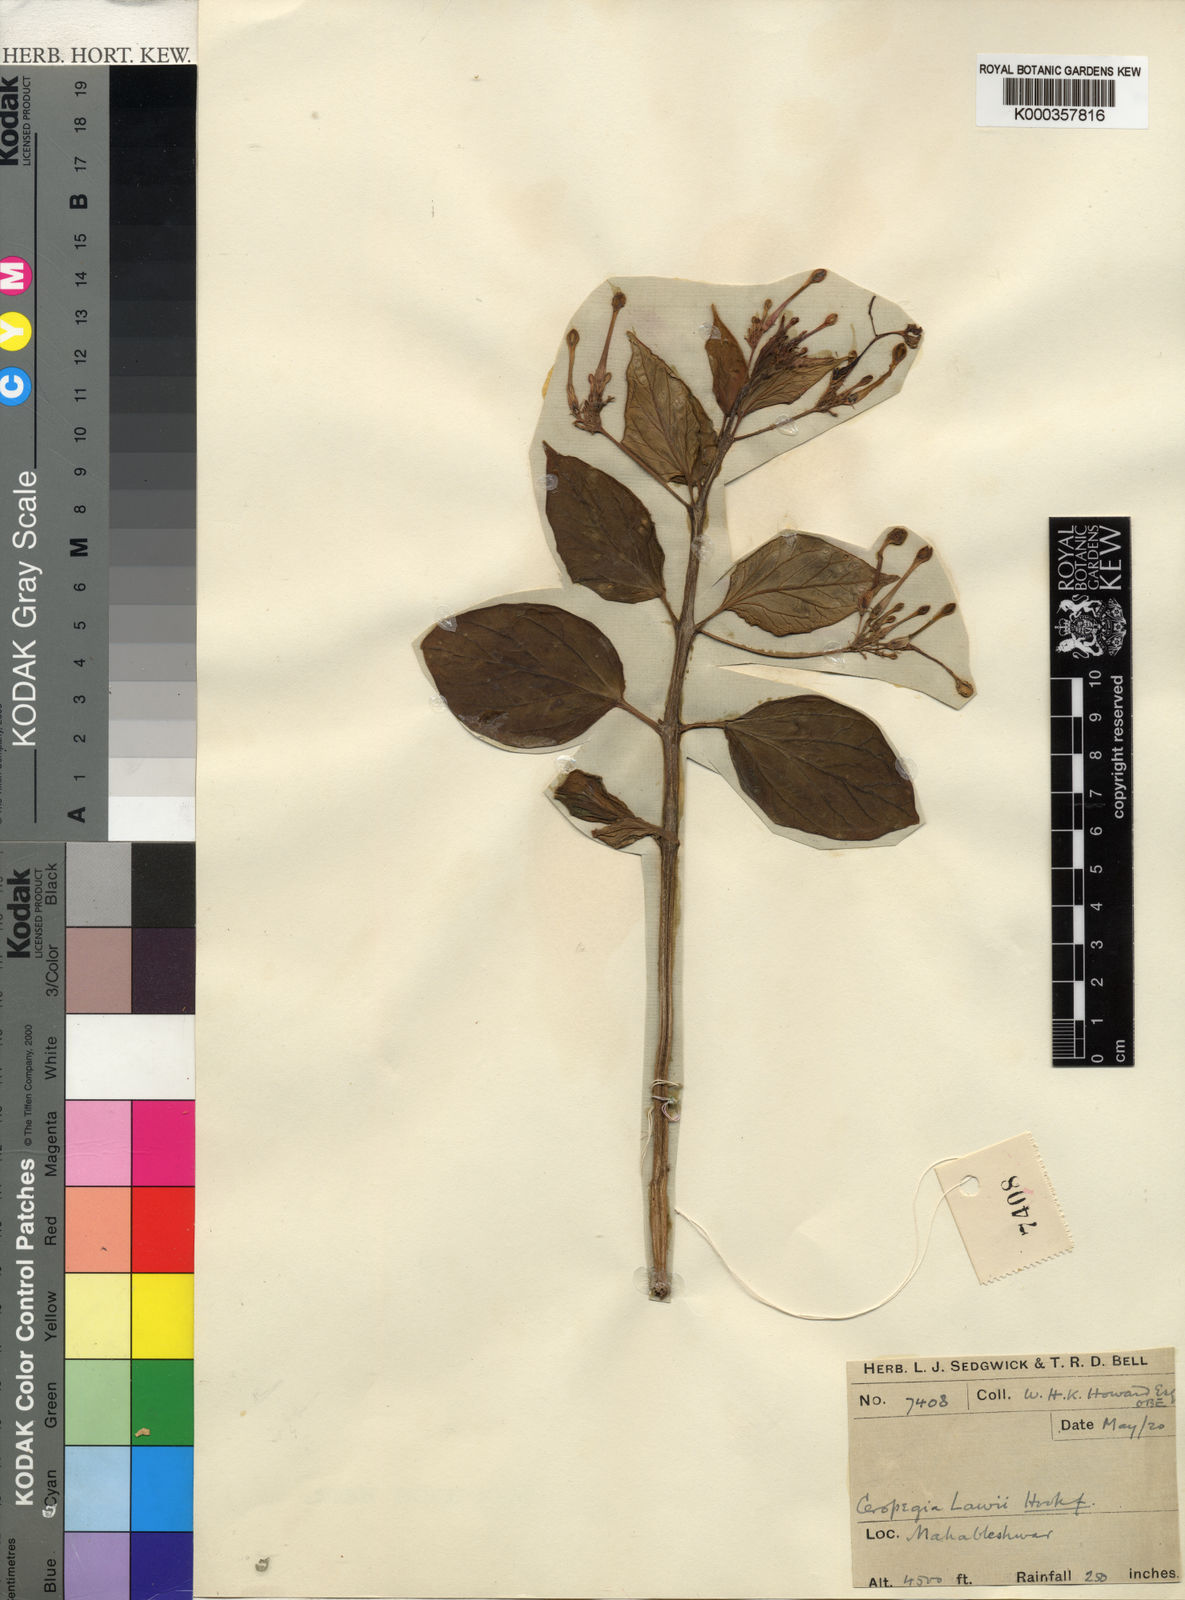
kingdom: Plantae
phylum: Tracheophyta
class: Magnoliopsida
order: Gentianales
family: Apocynaceae
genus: Ceropegia
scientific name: Ceropegia lawii
